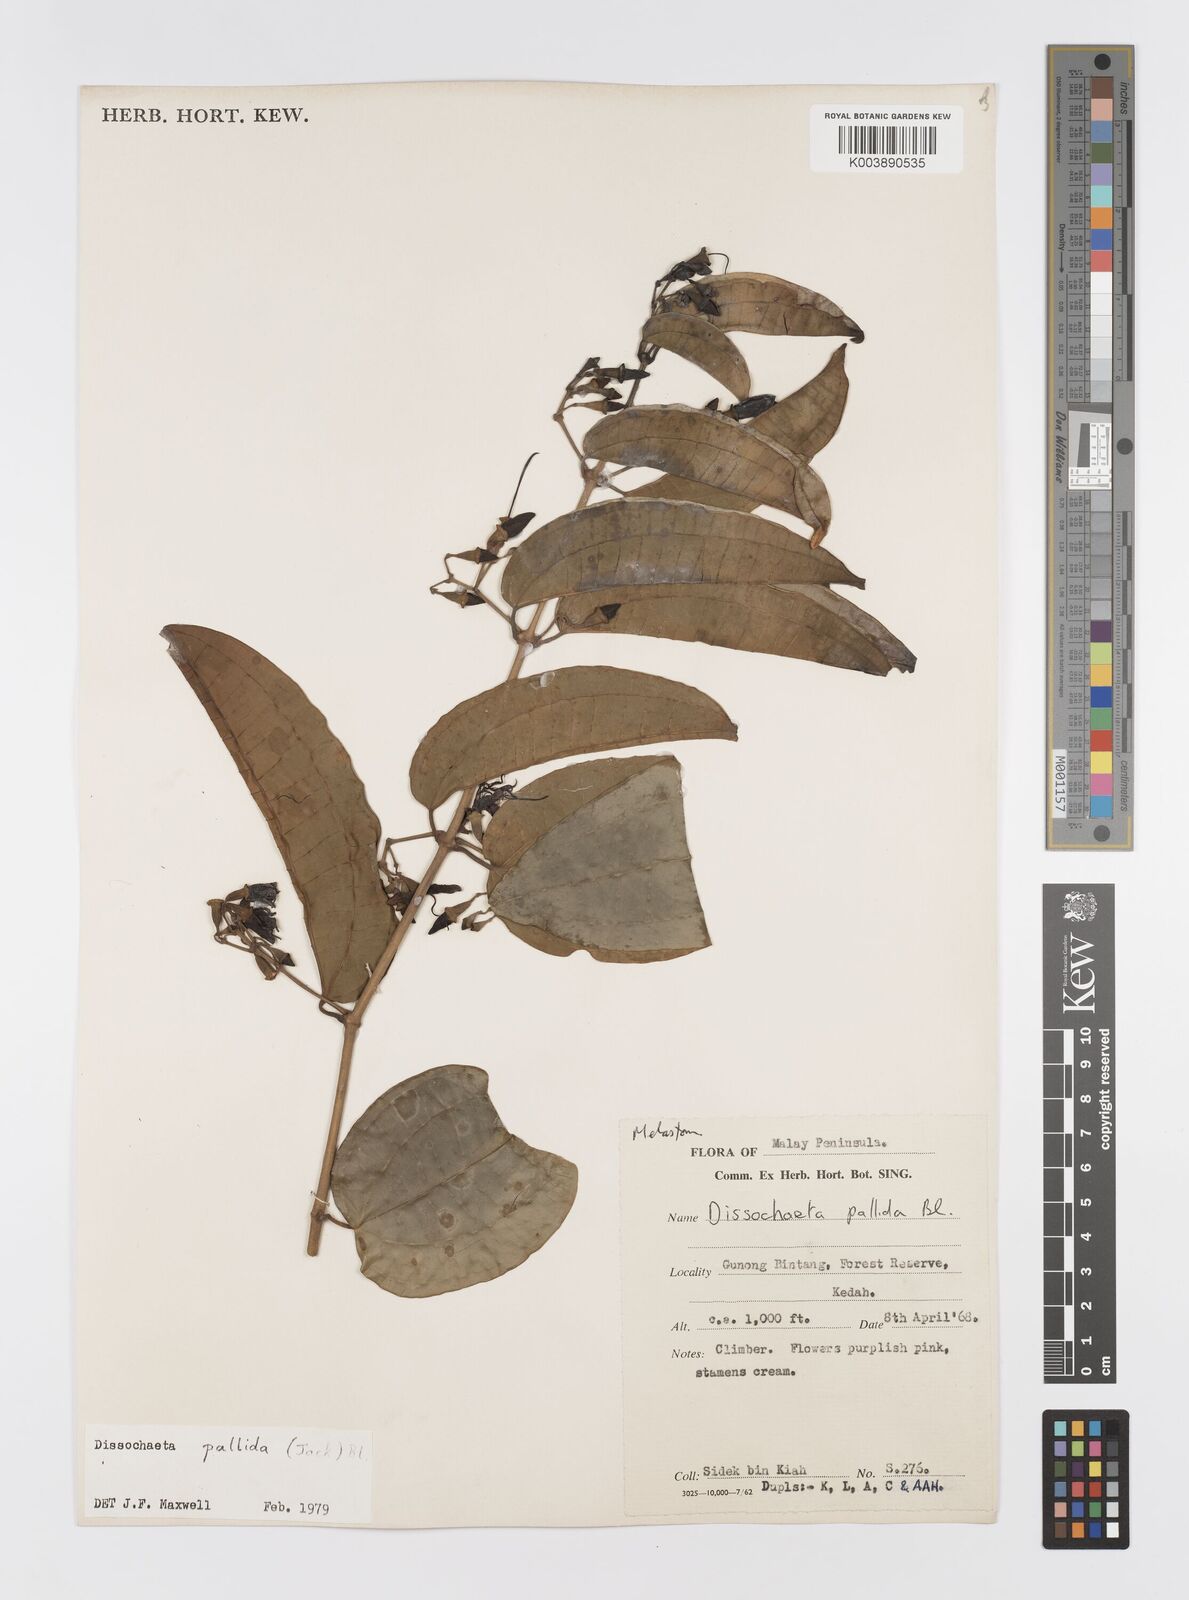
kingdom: Plantae
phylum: Tracheophyta
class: Magnoliopsida
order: Myrtales
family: Melastomataceae
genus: Dissochaeta
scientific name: Dissochaeta pallida
